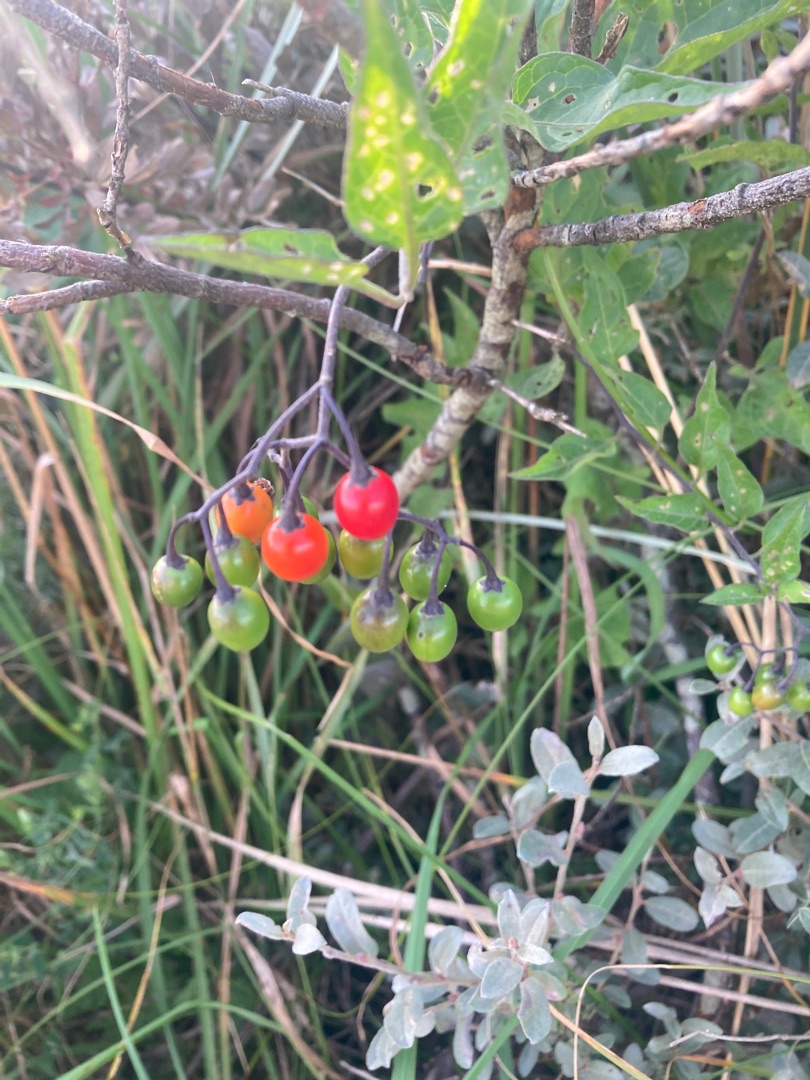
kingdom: Plantae
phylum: Tracheophyta
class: Magnoliopsida
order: Solanales
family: Solanaceae
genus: Solanum
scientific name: Solanum dulcamara
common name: Bittersød natskygge
